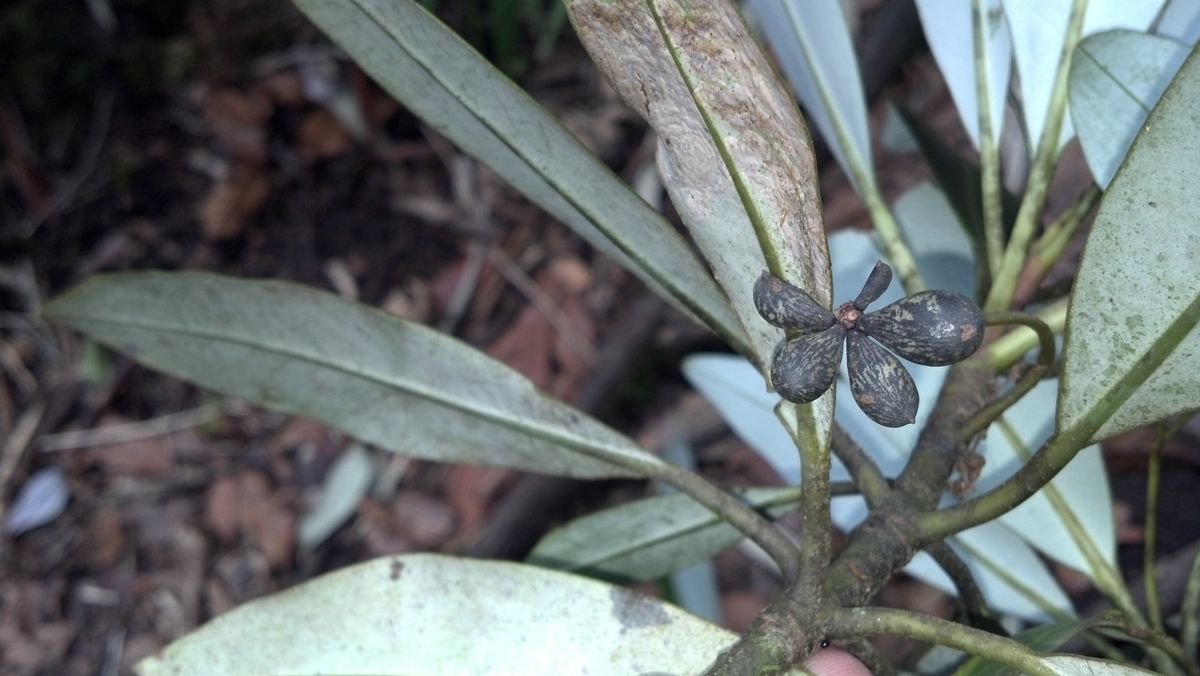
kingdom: Plantae
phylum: Tracheophyta
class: Magnoliopsida
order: Canellales
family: Winteraceae
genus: Drimys
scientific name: Drimys granadensis
